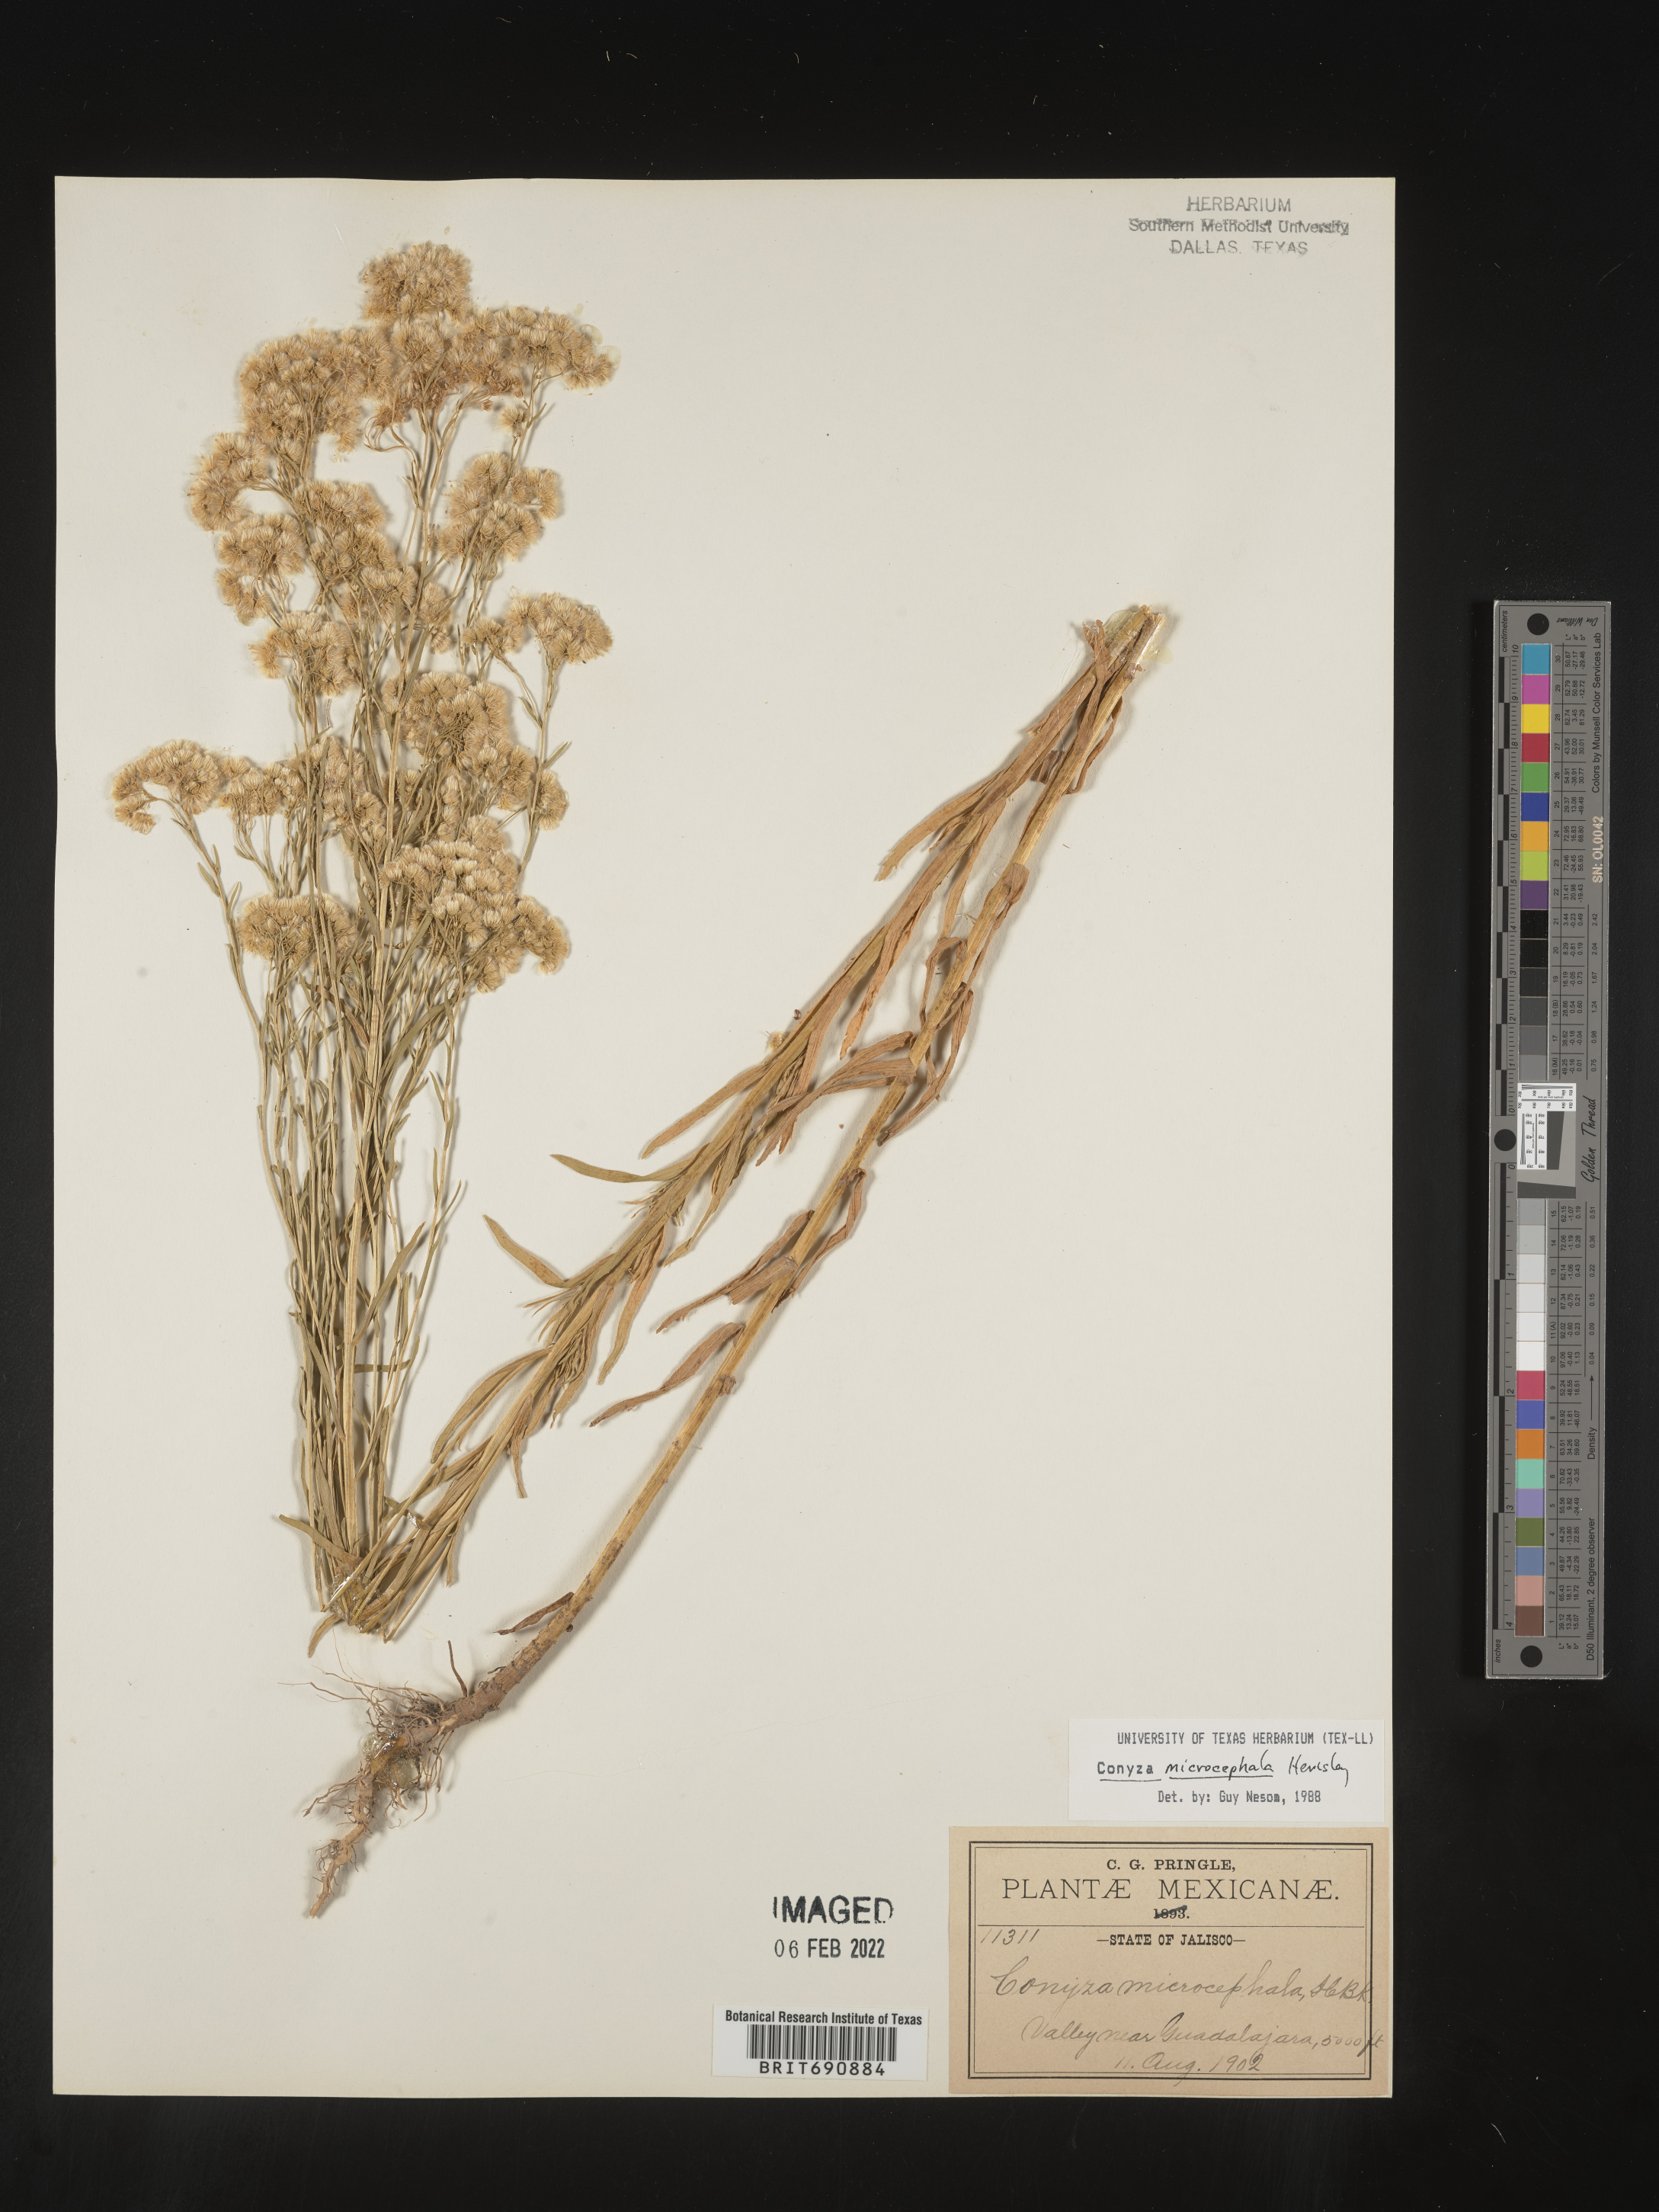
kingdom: Plantae
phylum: Tracheophyta
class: Magnoliopsida
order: Asterales
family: Asteraceae
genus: Erigeron
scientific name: Erigeron columnaris
